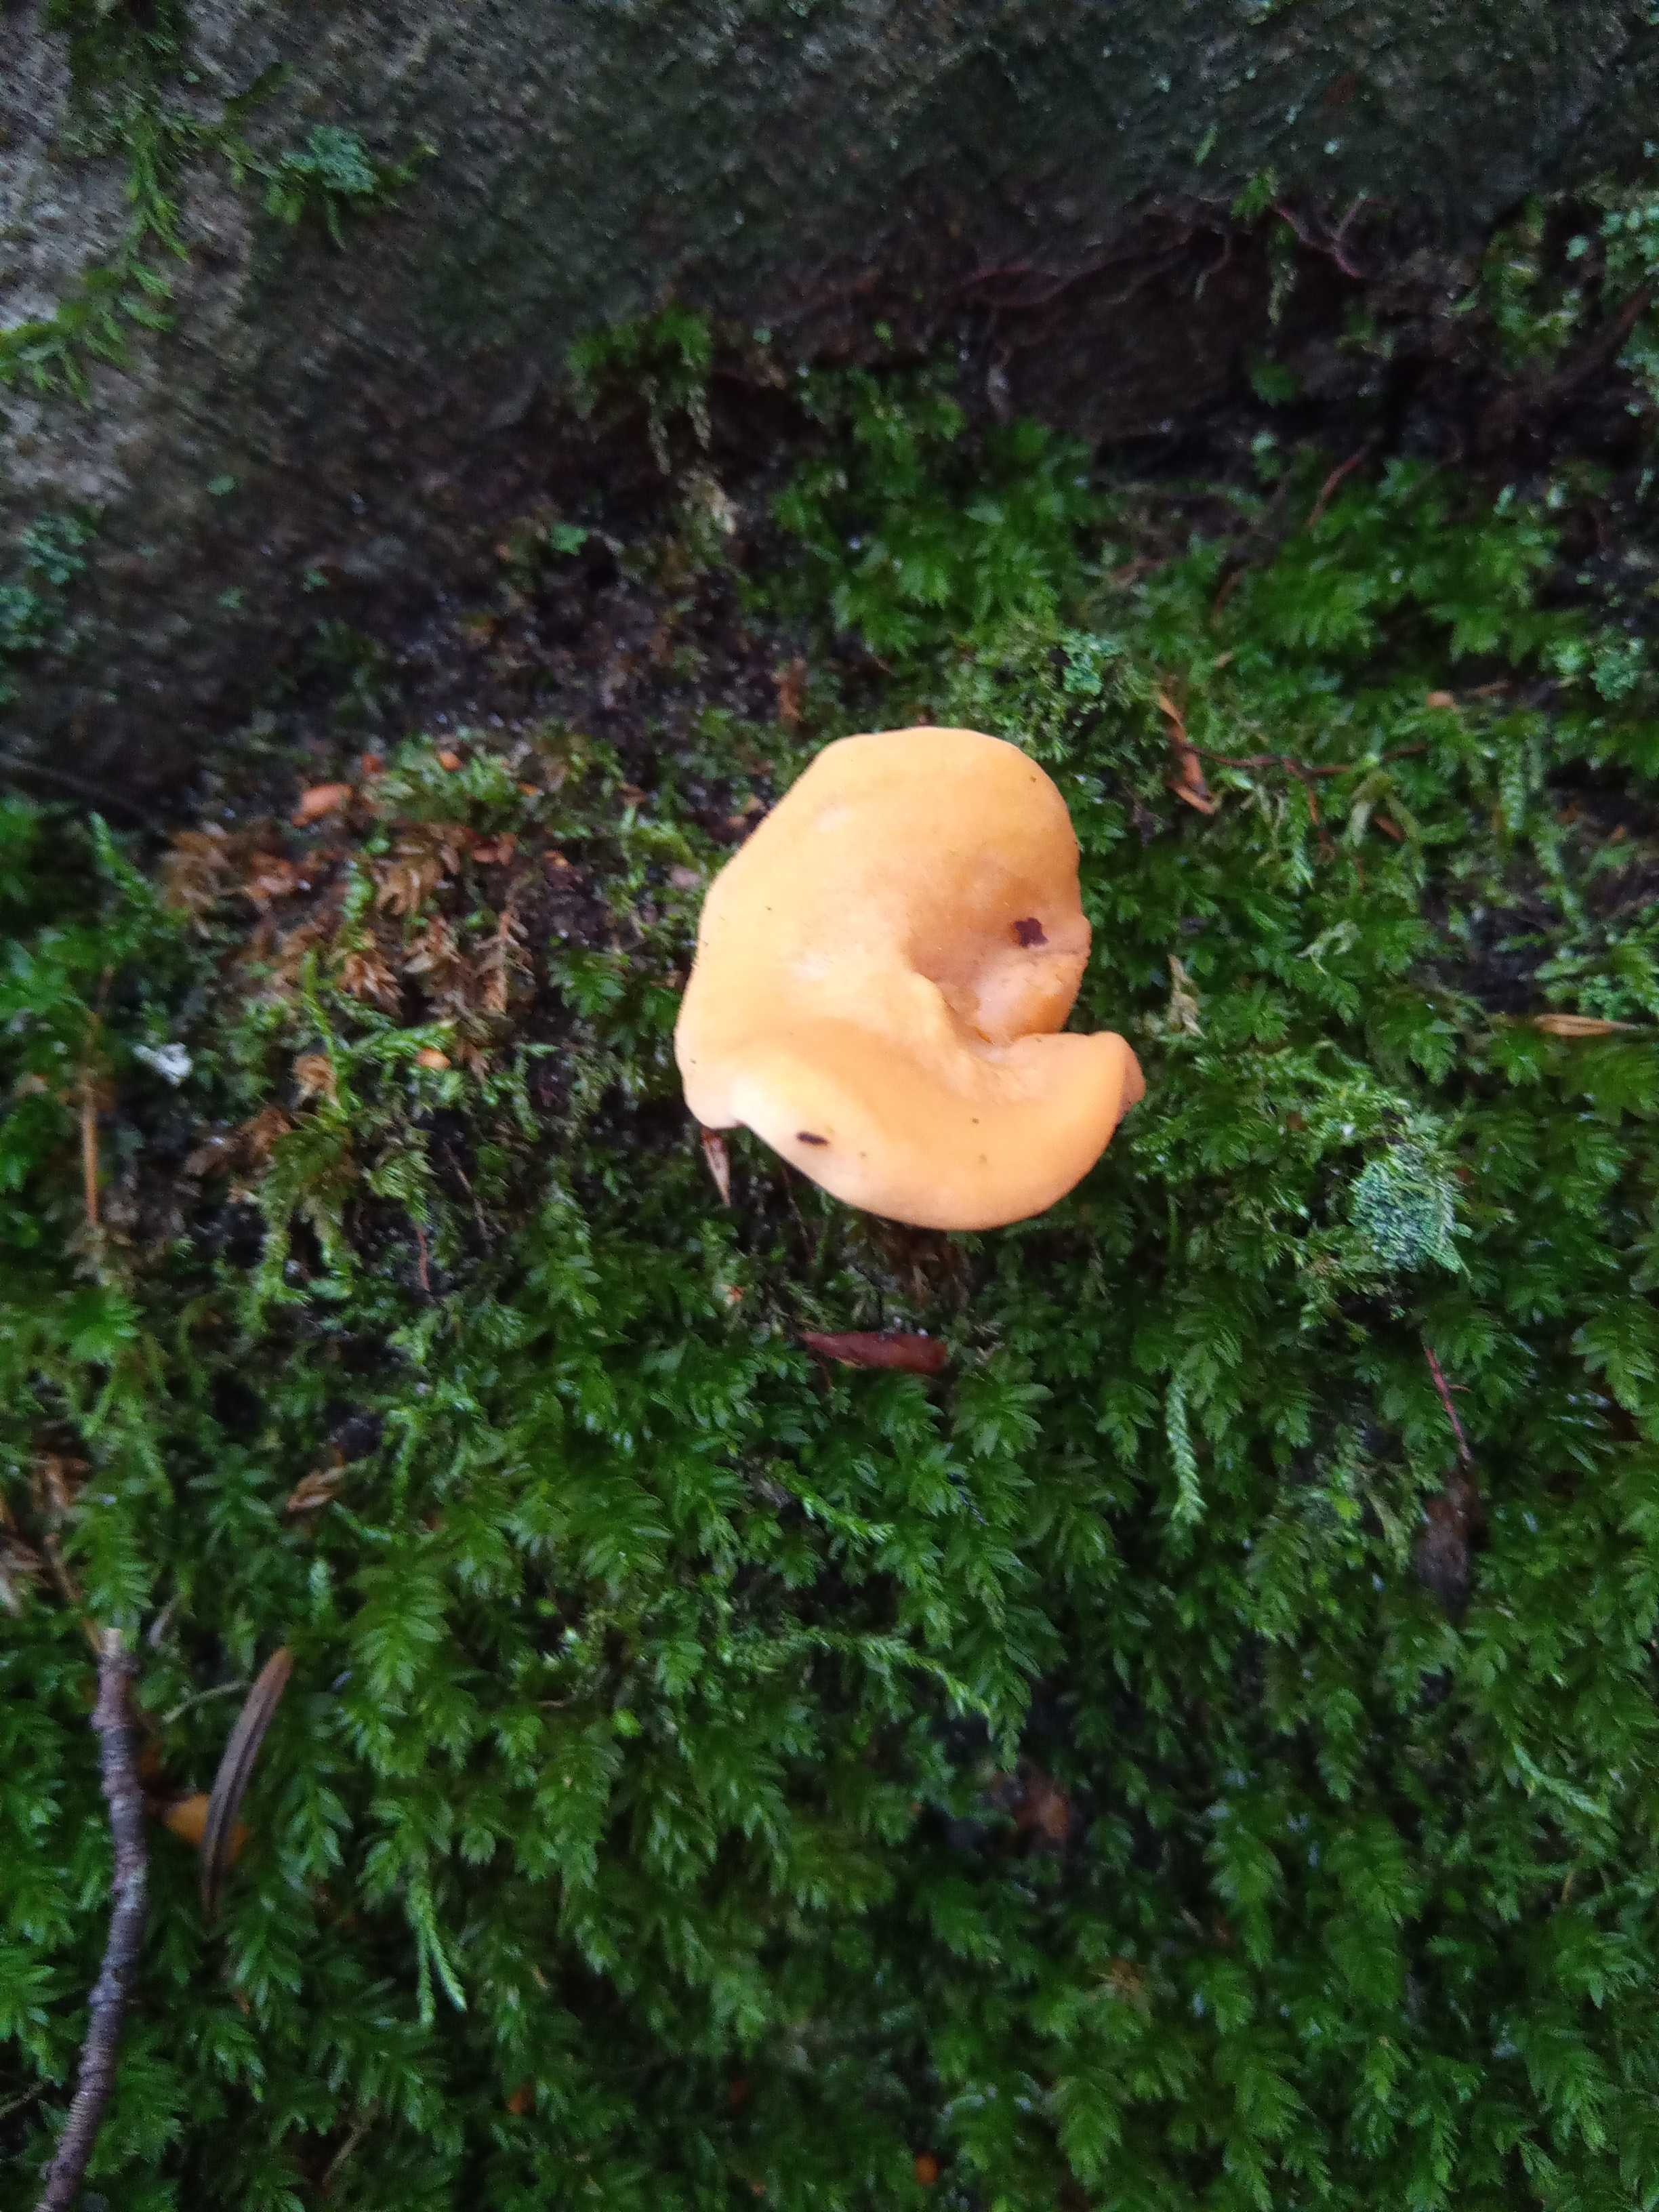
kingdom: Fungi
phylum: Basidiomycota
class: Agaricomycetes
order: Cantharellales
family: Hydnaceae
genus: Hydnum
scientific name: Hydnum rufescens
